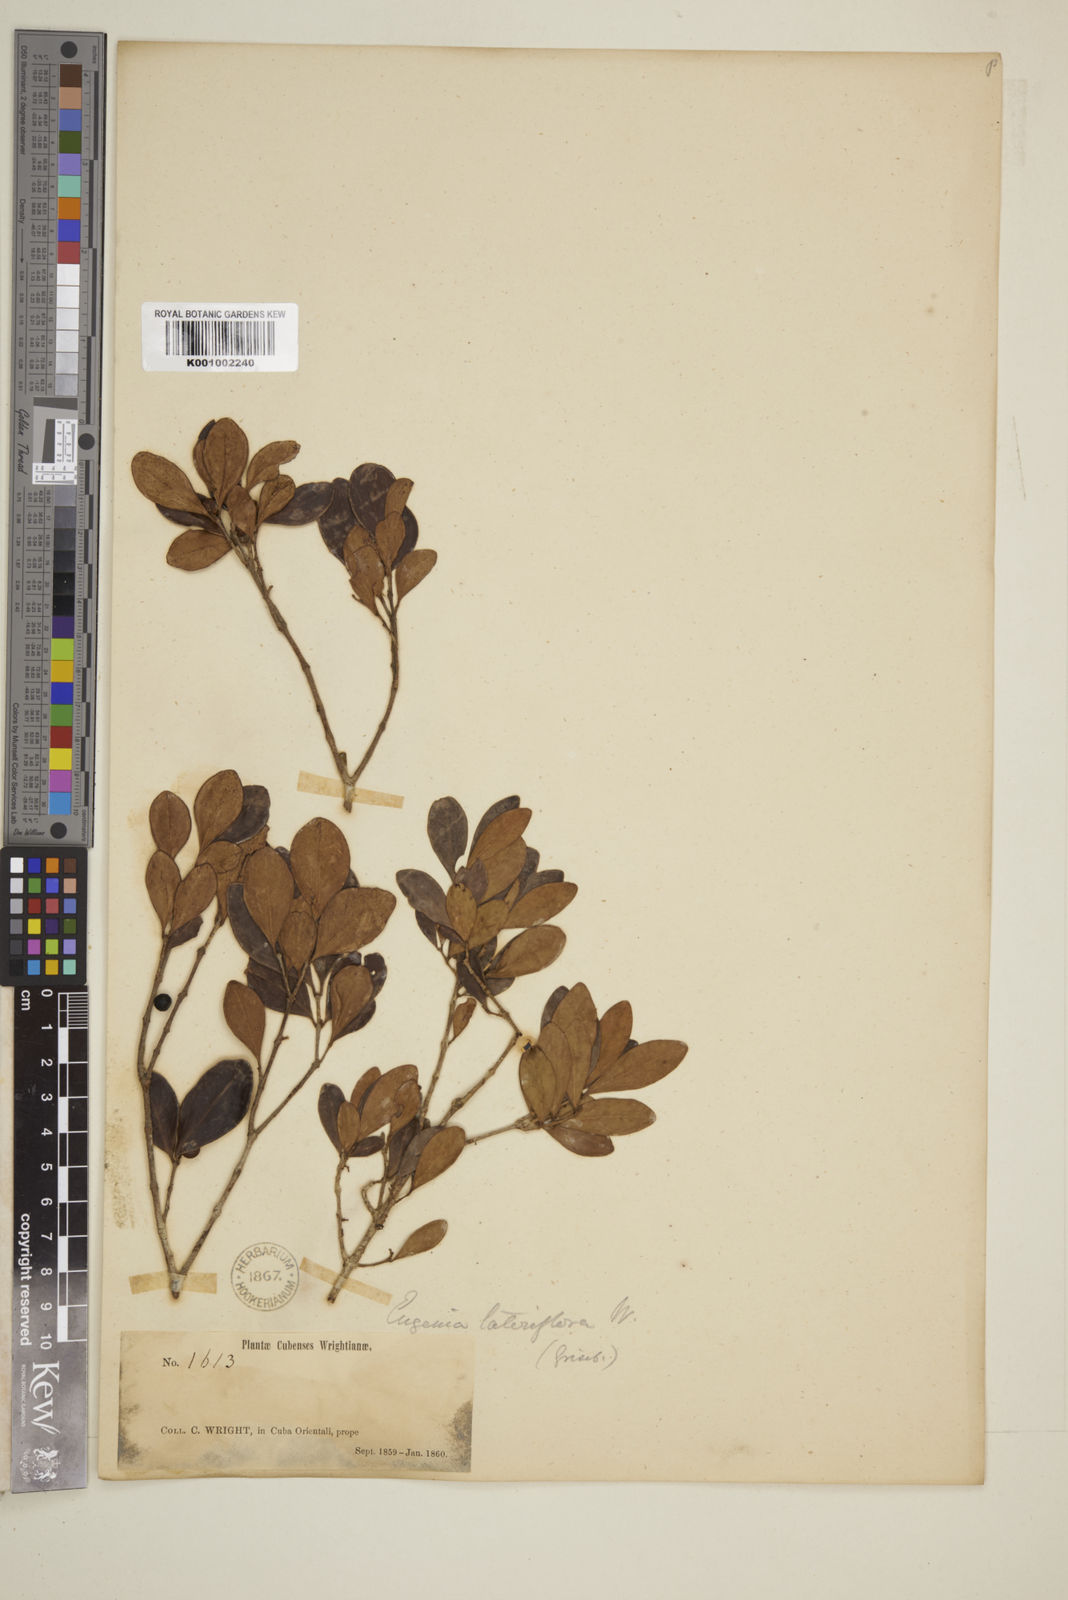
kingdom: Plantae
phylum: Tracheophyta
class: Magnoliopsida
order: Myrtales
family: Myrtaceae
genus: Eugenia
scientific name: Eugenia sessiliflora
